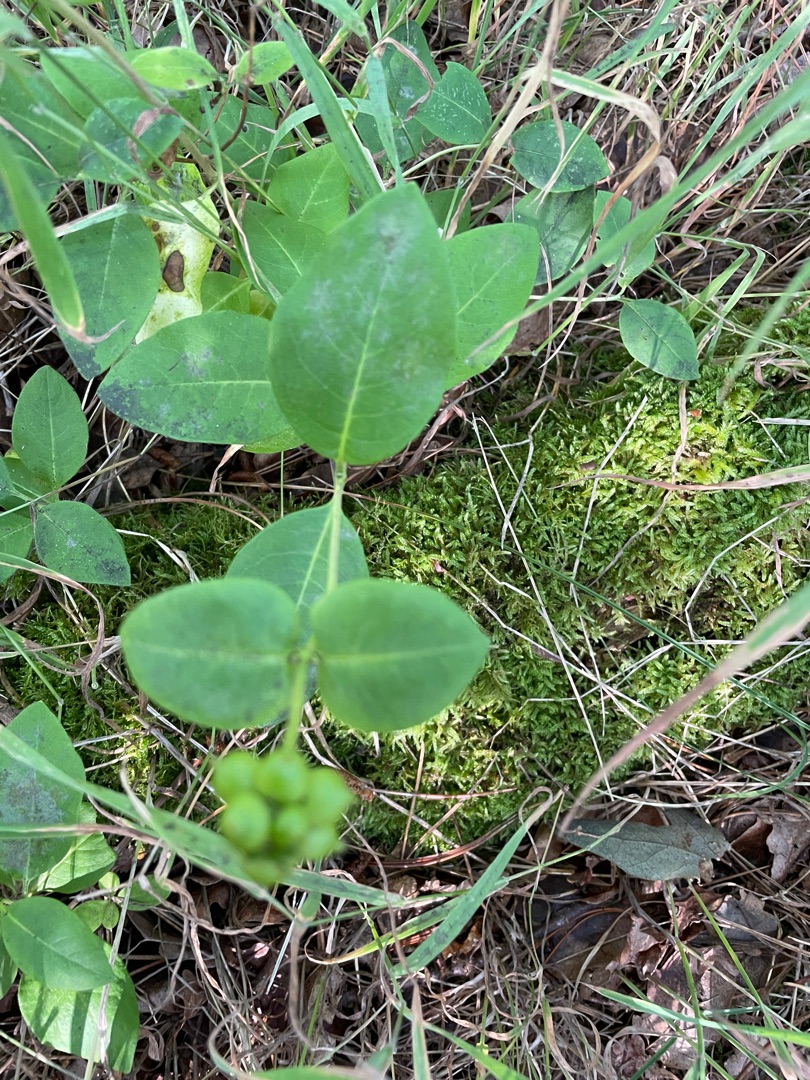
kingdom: Plantae
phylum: Tracheophyta
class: Magnoliopsida
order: Dipsacales
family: Caprifoliaceae
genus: Lonicera
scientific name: Lonicera periclymenum
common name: Almindelig gedeblad
